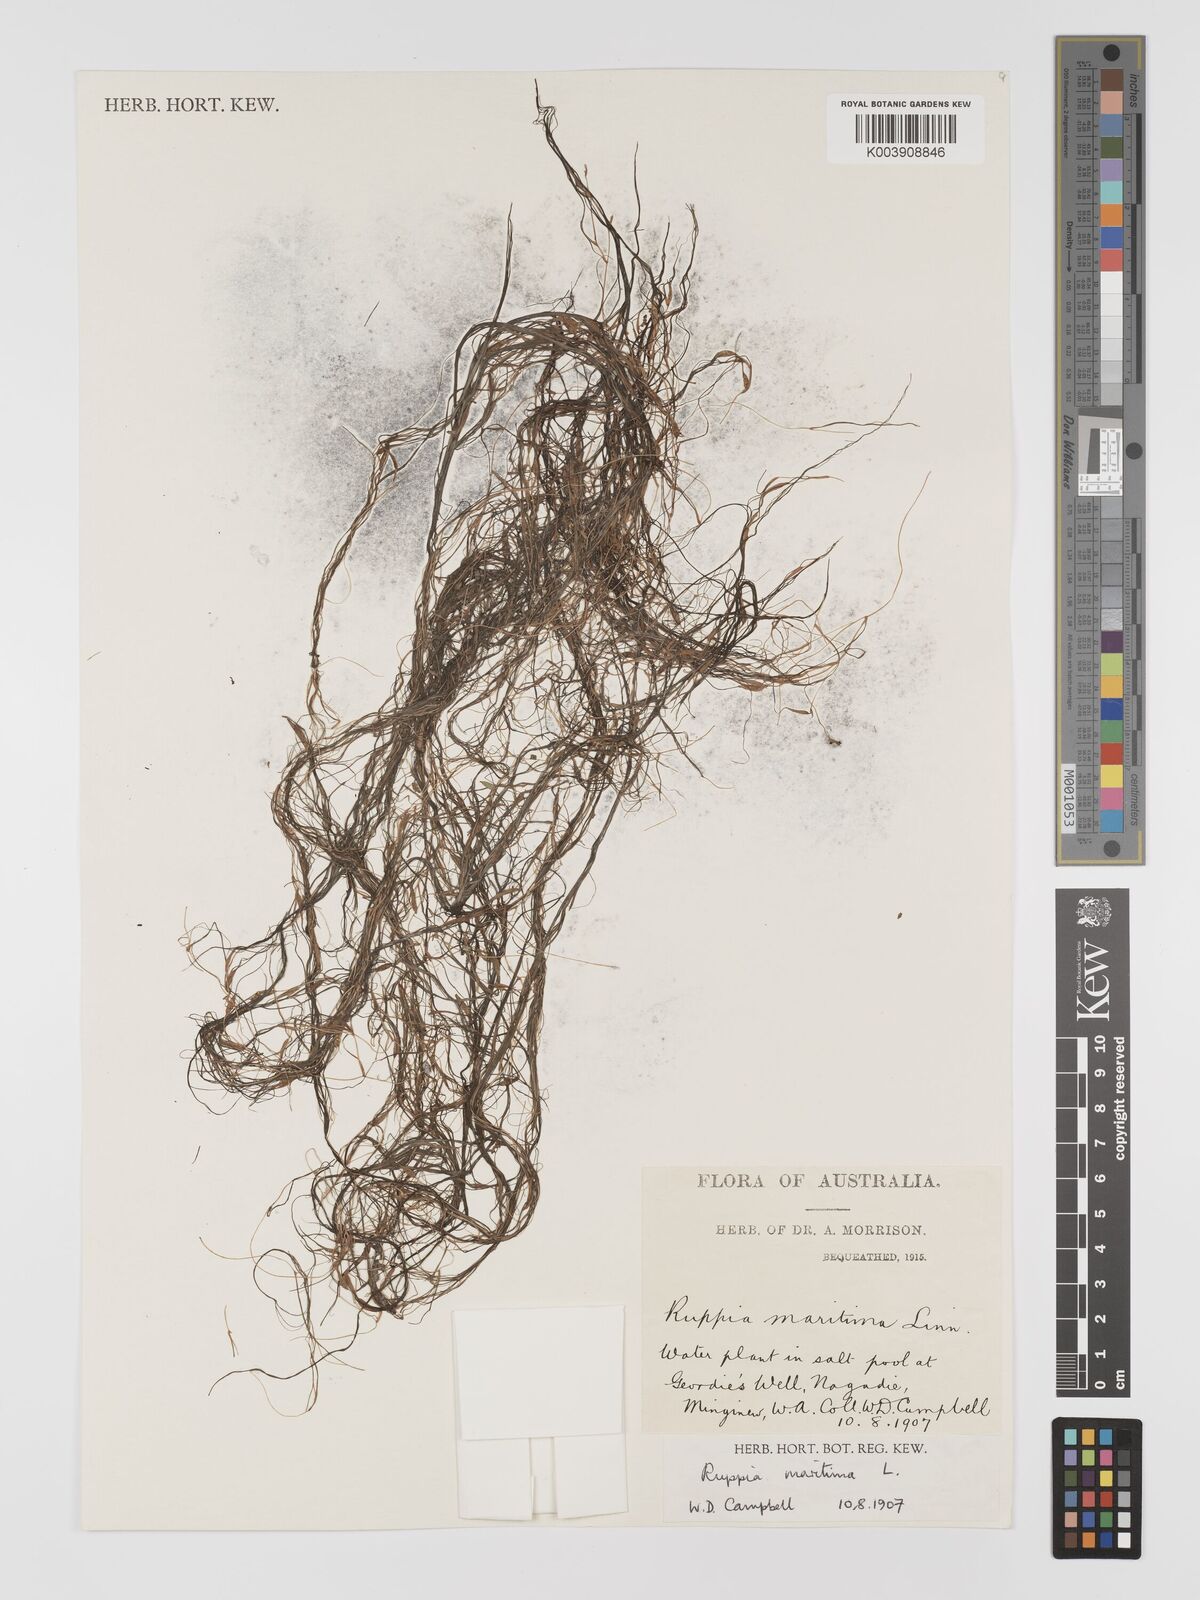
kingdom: Plantae
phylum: Tracheophyta
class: Liliopsida
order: Alismatales
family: Ruppiaceae
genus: Ruppia
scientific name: Ruppia maritima
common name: Beaked tasselweed
